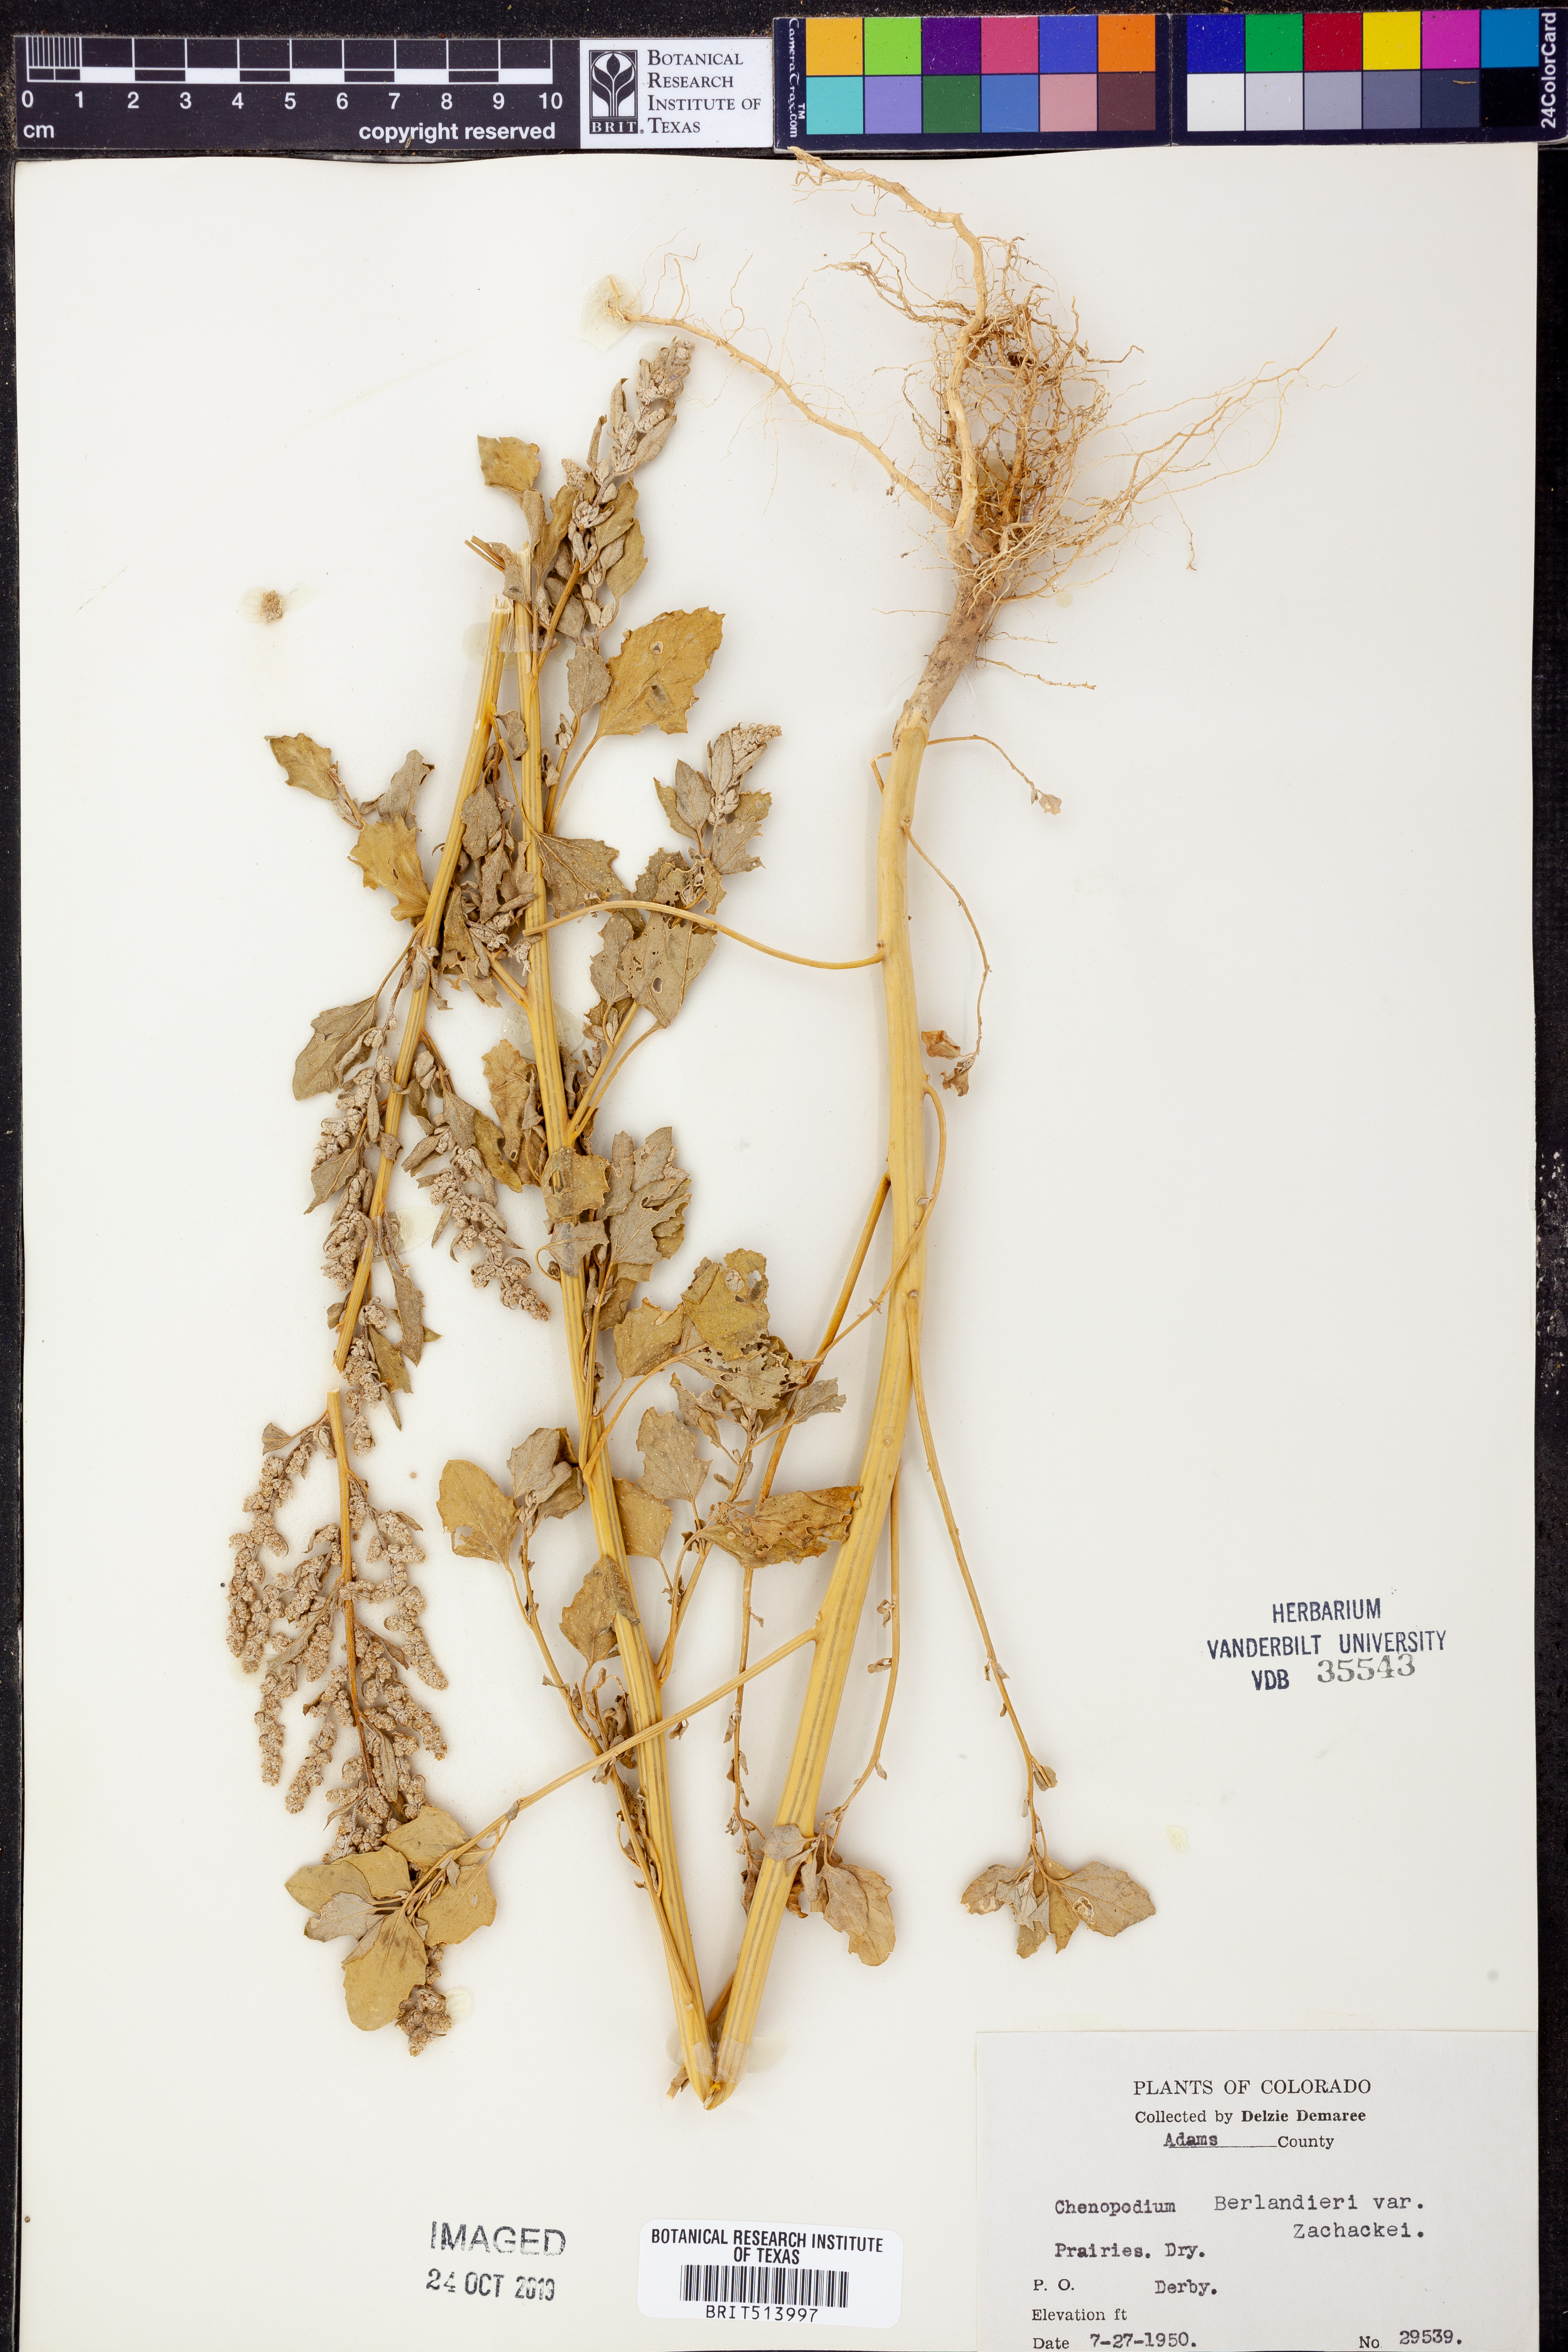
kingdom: Plantae
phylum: Tracheophyta
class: Magnoliopsida
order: Caryophyllales
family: Amaranthaceae
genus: Chenopodium
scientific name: Chenopodium berlandieri
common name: Pit-seed goosefoot
